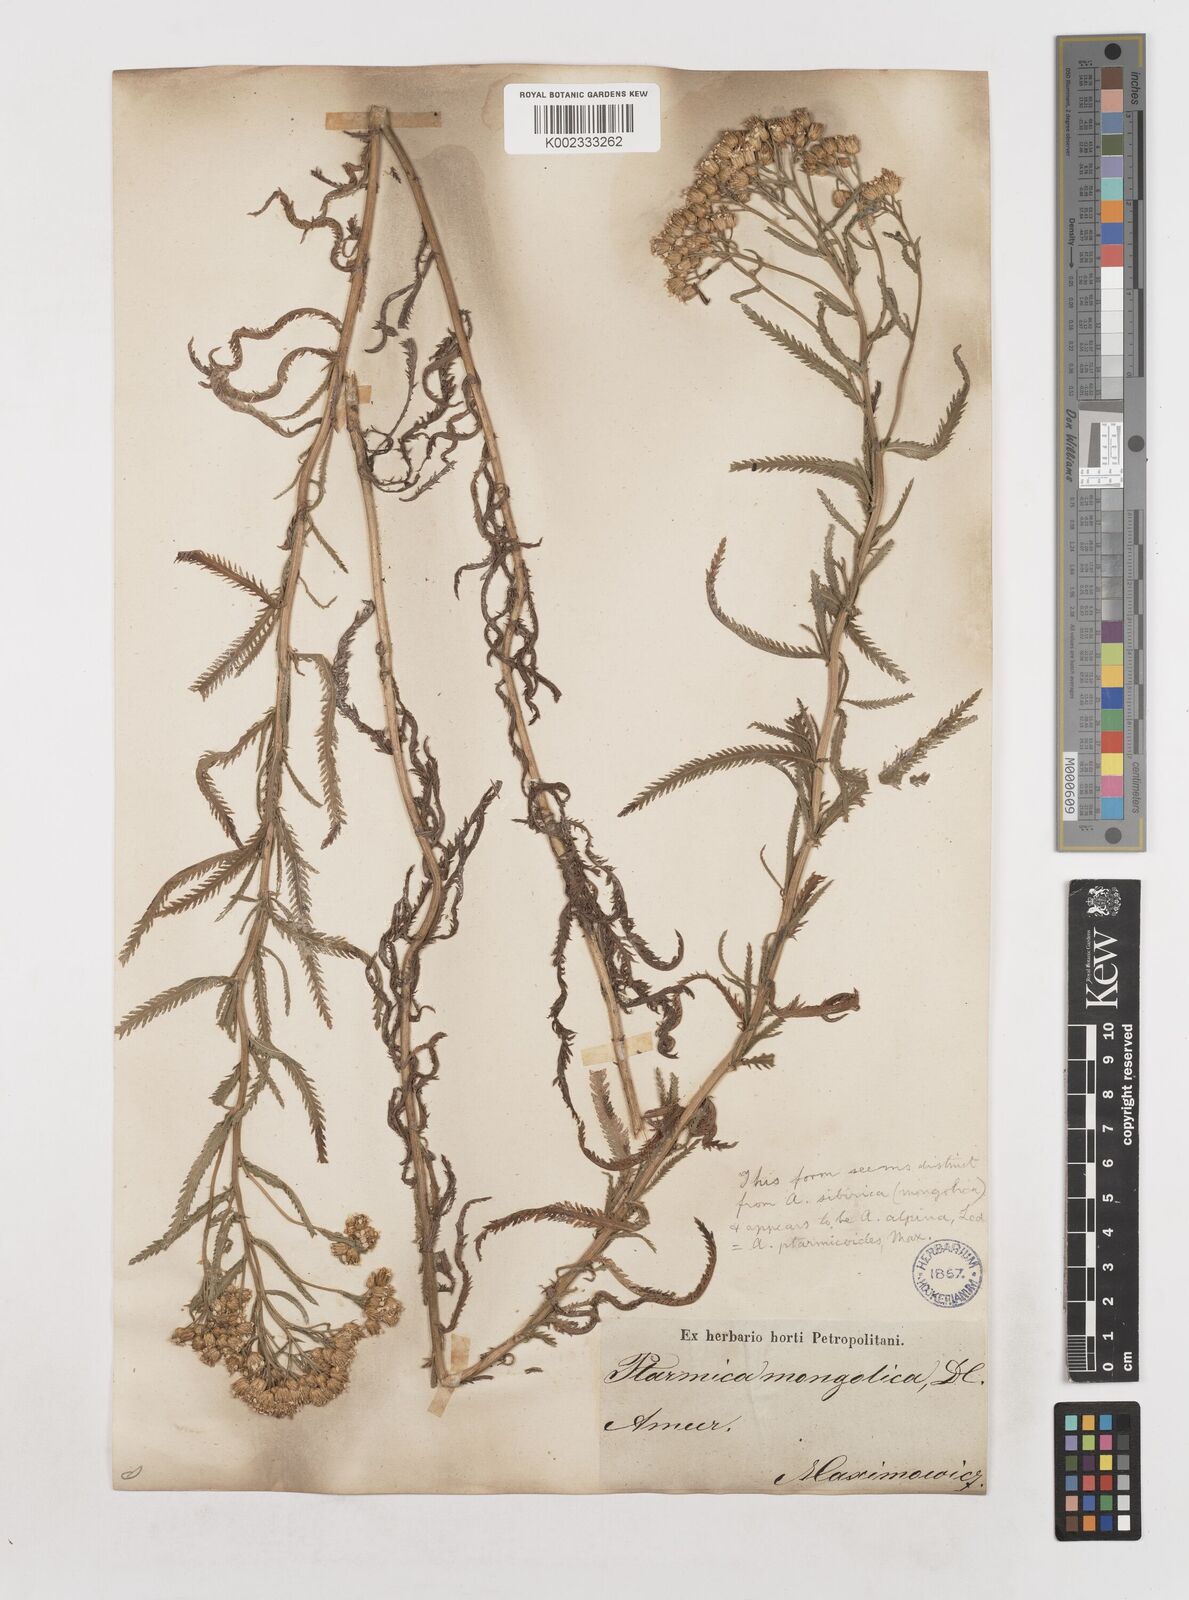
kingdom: Plantae
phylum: Tracheophyta
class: Magnoliopsida
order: Asterales
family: Asteraceae
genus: Achillea
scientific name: Achillea ptarmicoides
